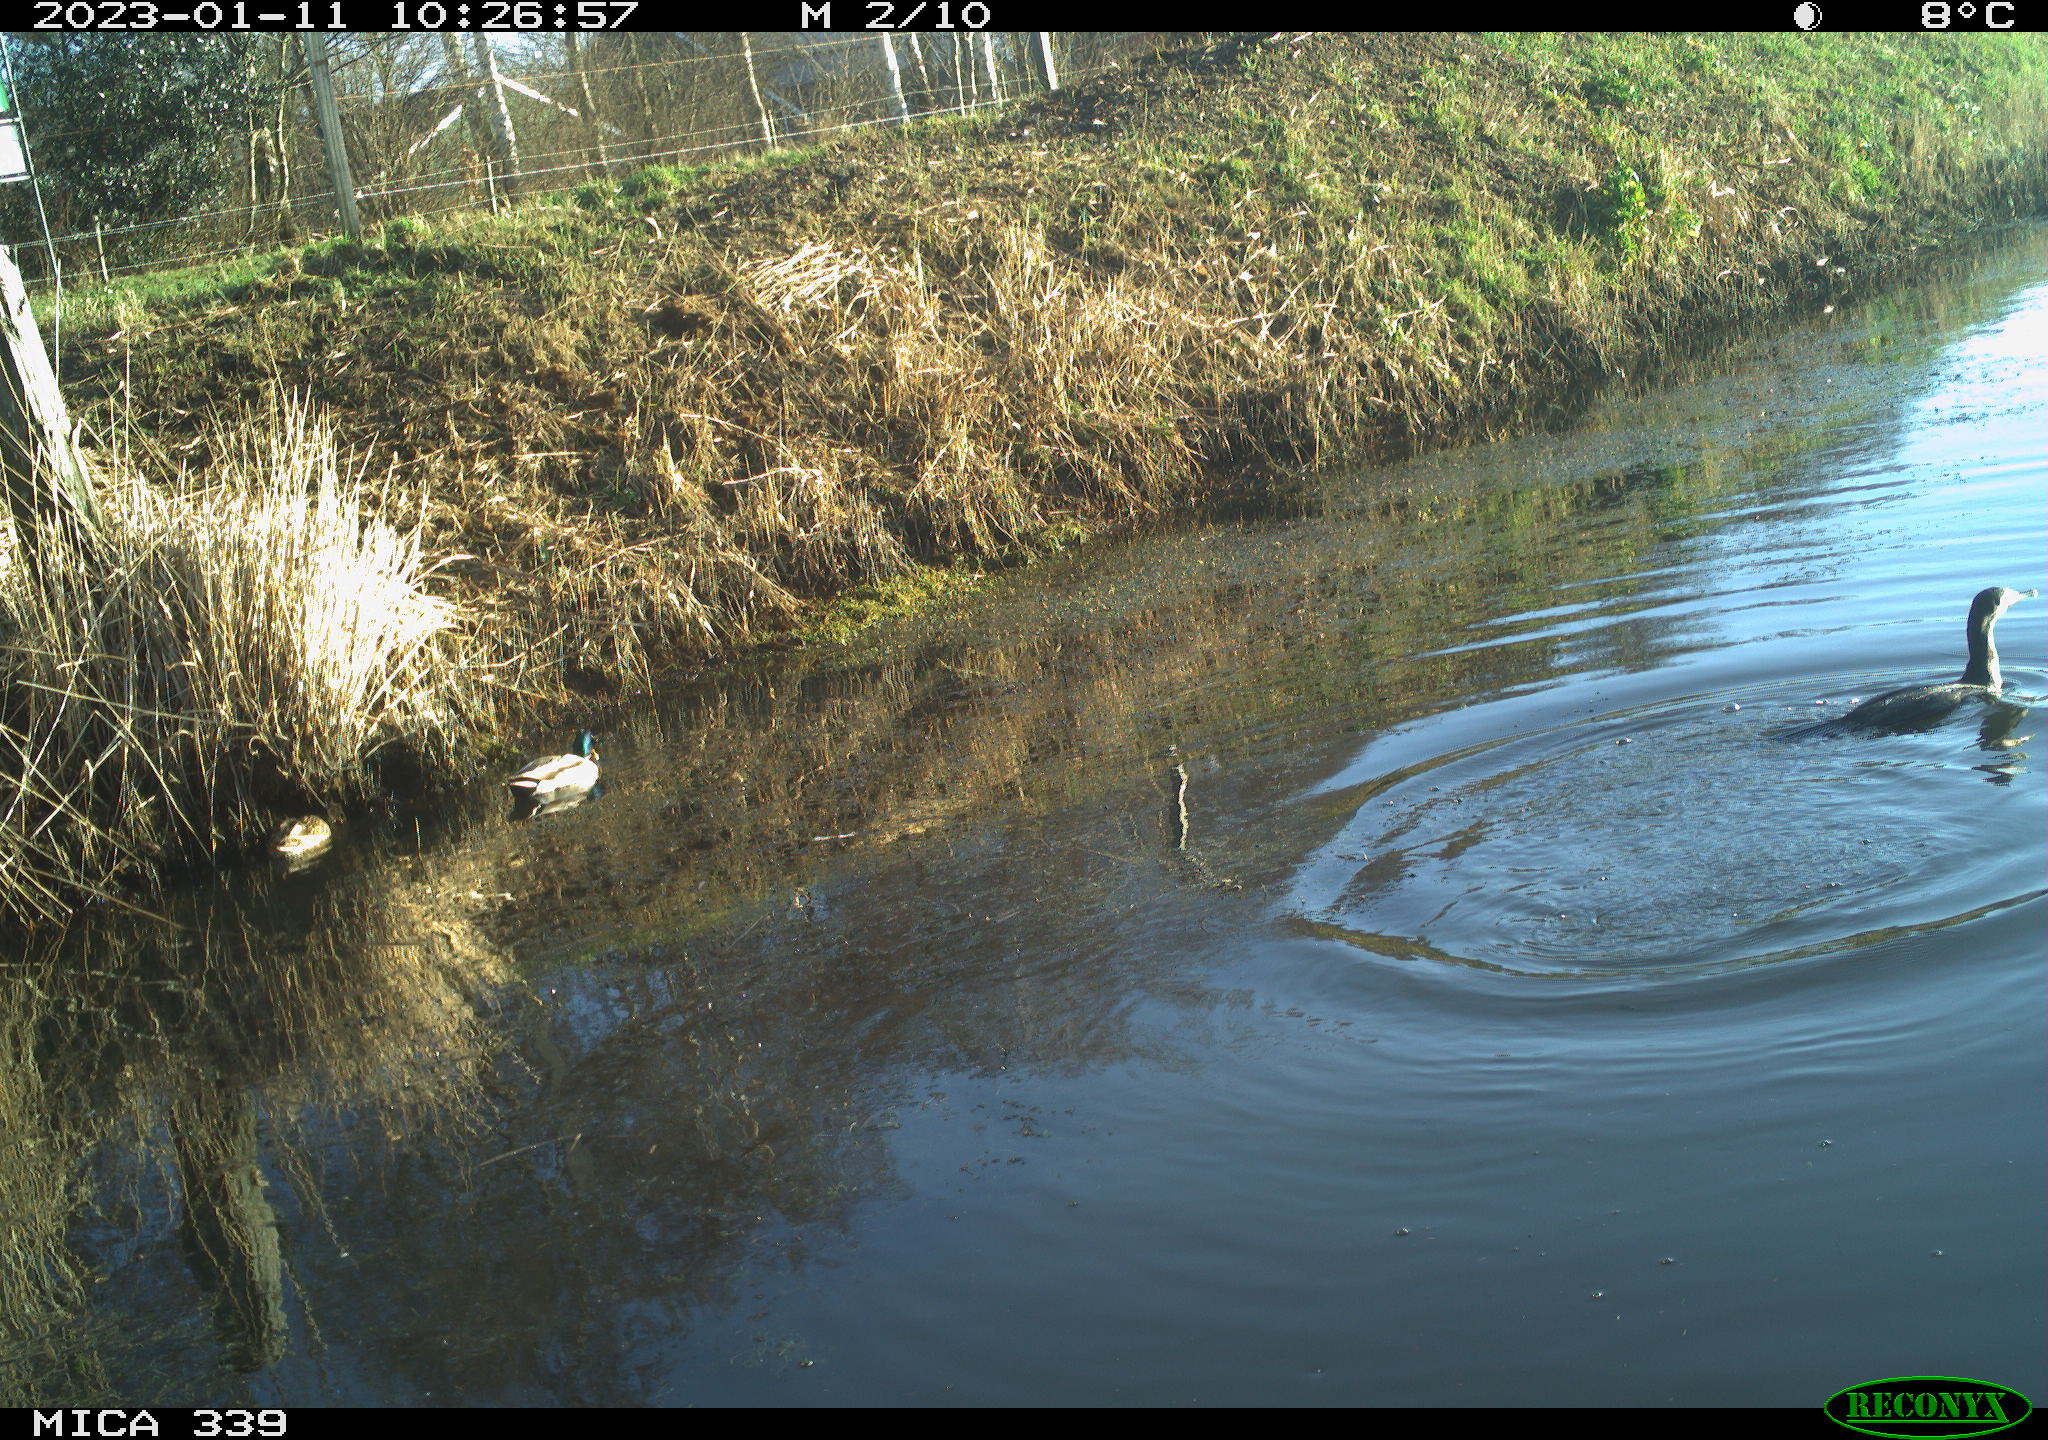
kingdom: Animalia
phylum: Chordata
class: Aves
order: Anseriformes
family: Anatidae
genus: Anas
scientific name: Anas
